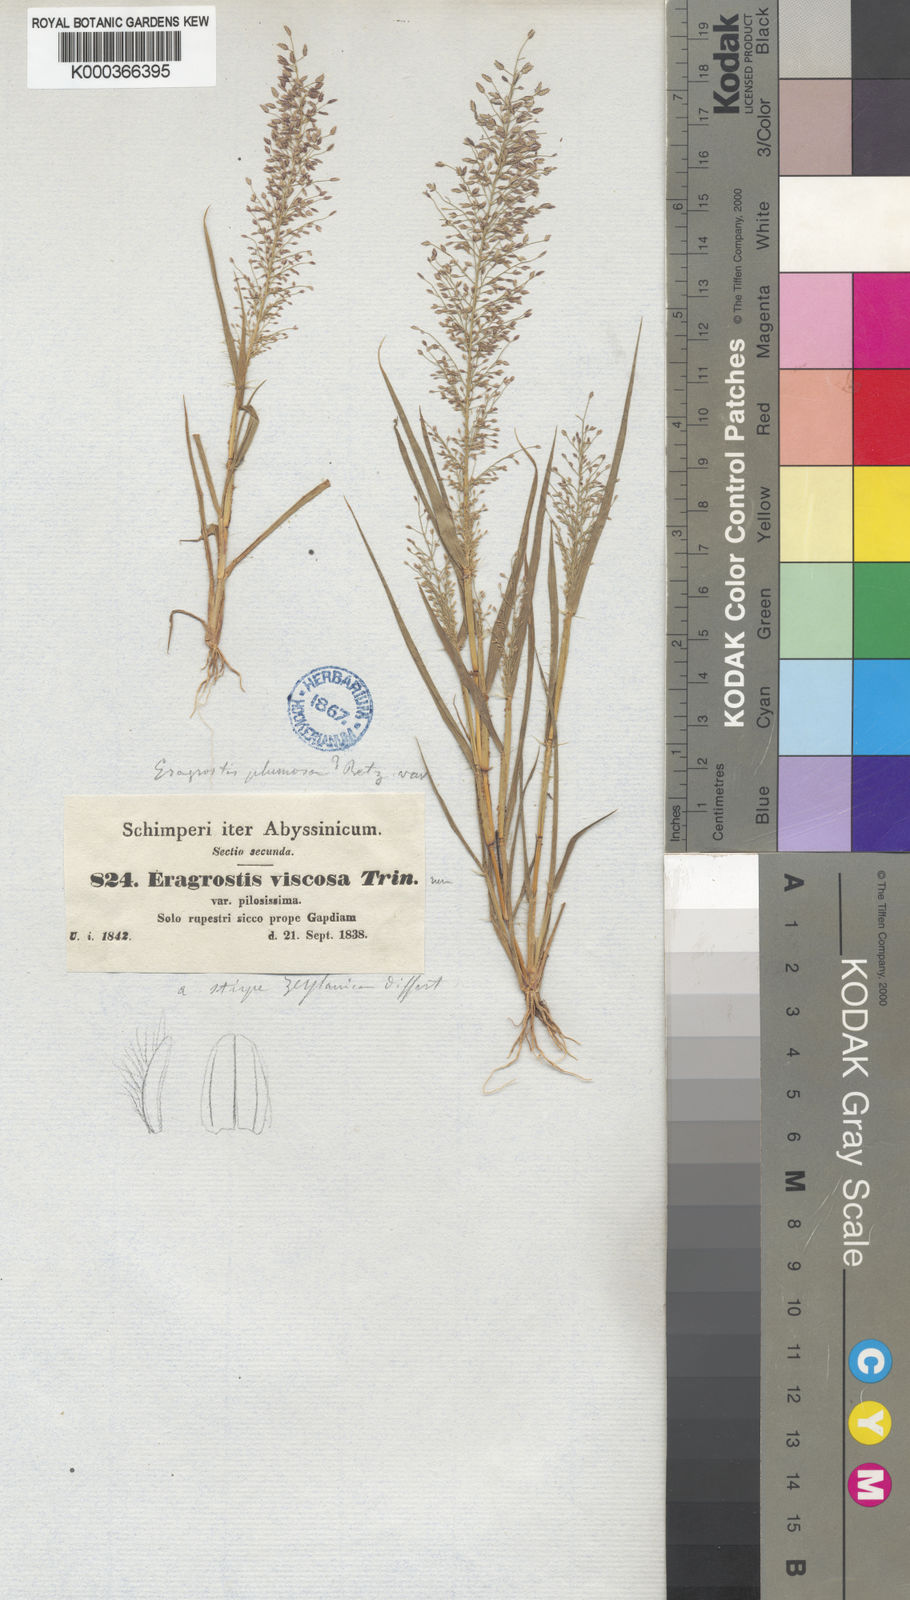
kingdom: Plantae
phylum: Tracheophyta
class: Liliopsida
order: Poales
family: Poaceae
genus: Eragrostis
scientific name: Eragrostis viscosa
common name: Sticky love grass
